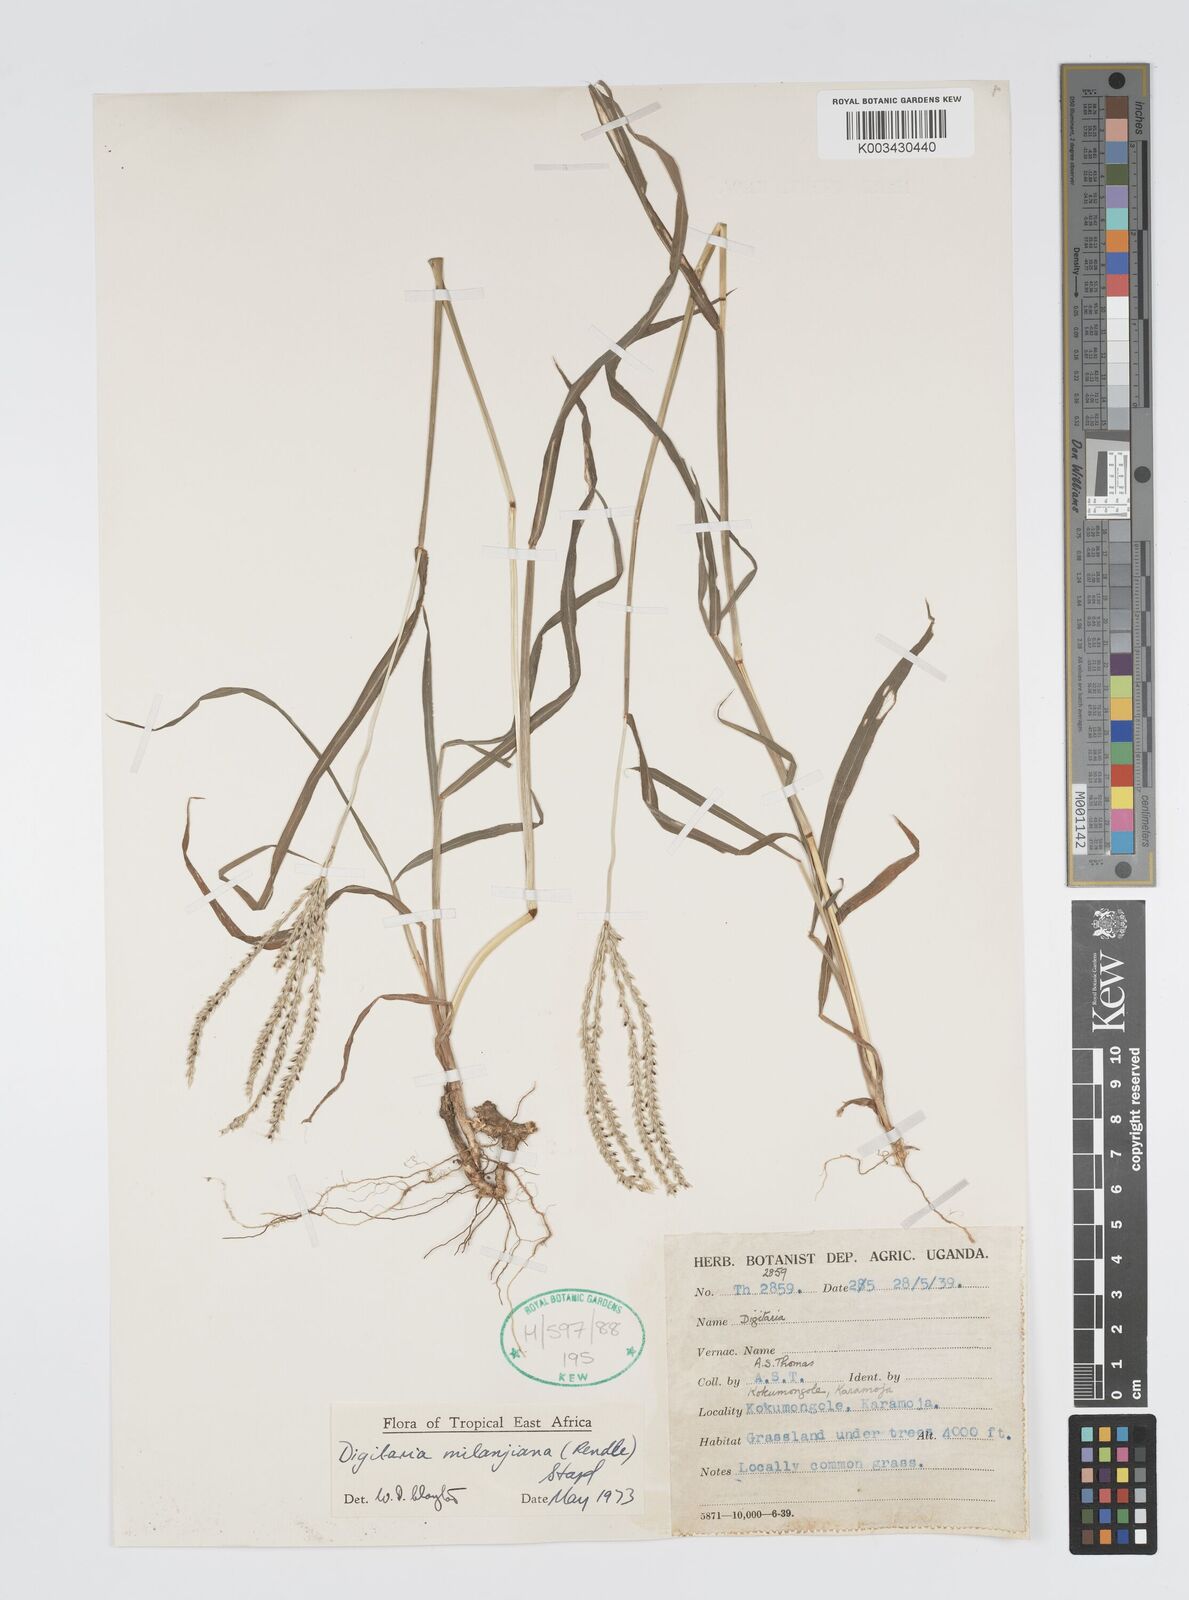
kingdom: Plantae
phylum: Tracheophyta
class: Liliopsida
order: Poales
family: Poaceae
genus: Digitaria
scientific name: Digitaria milanjiana
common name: Madagascar crabgrass
